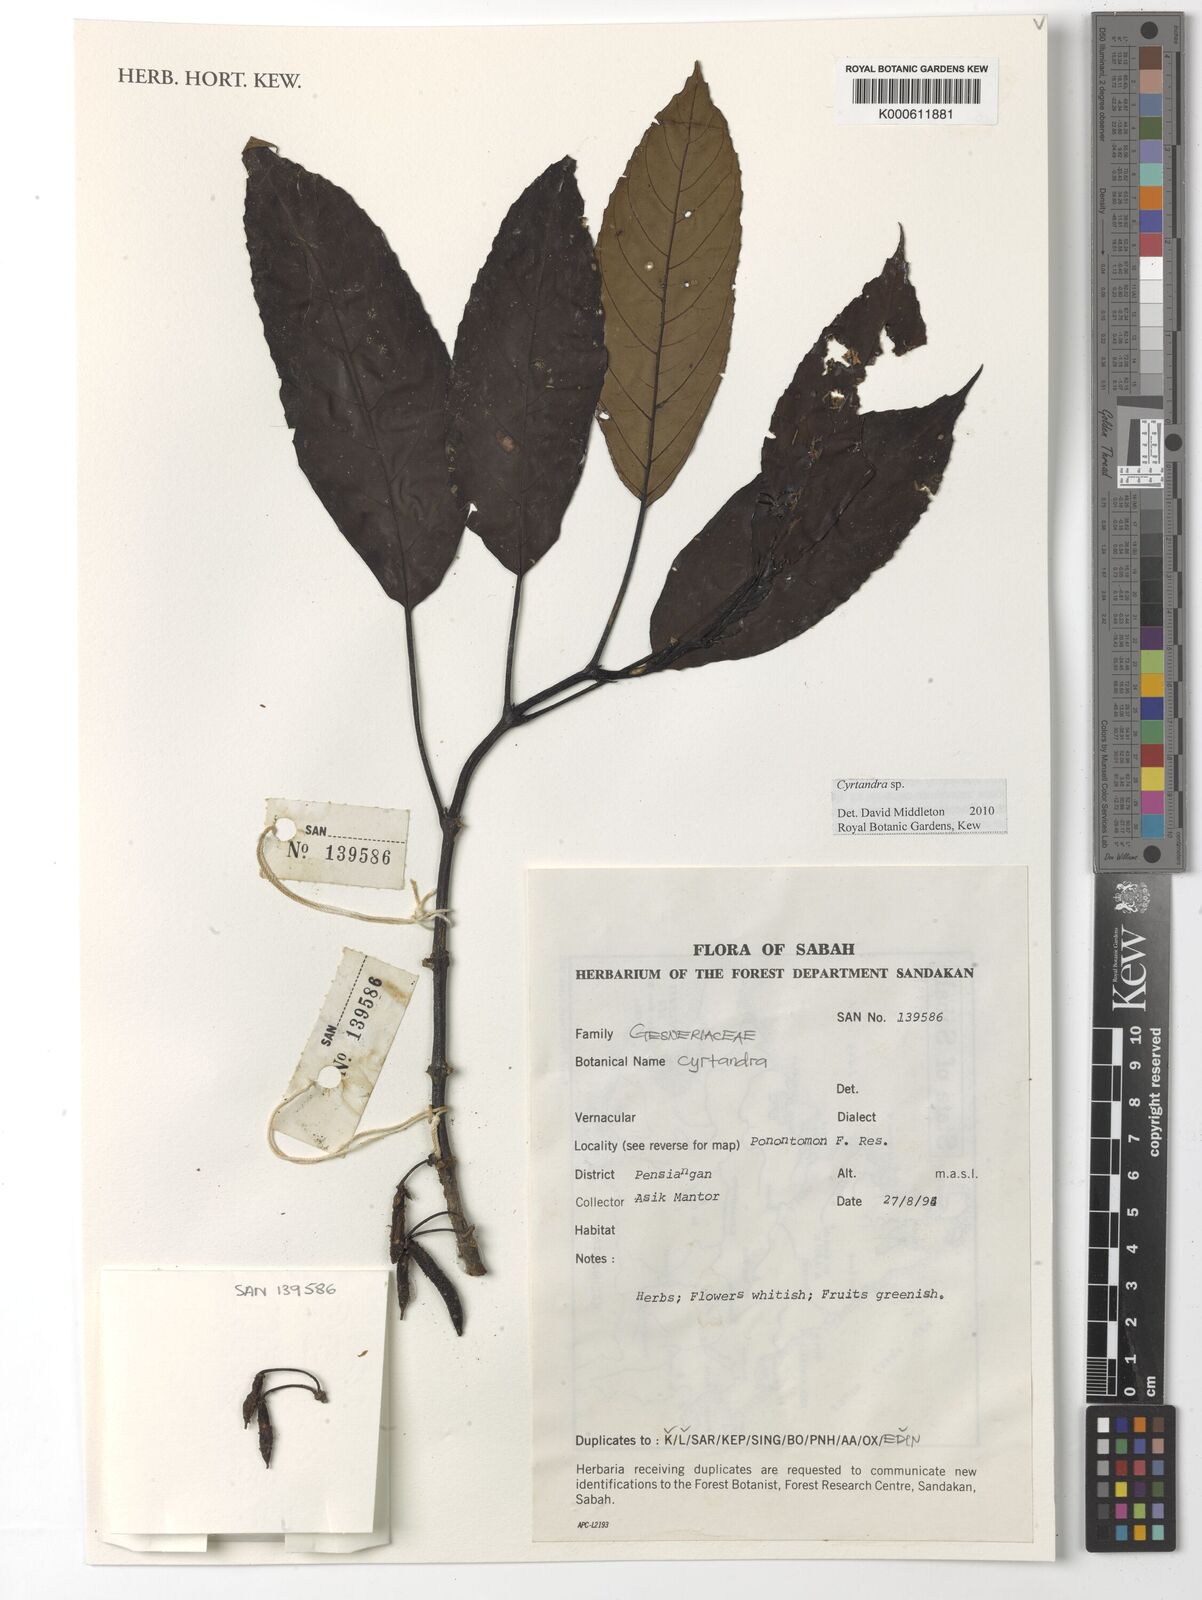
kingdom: Plantae
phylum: Tracheophyta
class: Magnoliopsida
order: Lamiales
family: Gesneriaceae
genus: Cyrtandra
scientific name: Cyrtandra
